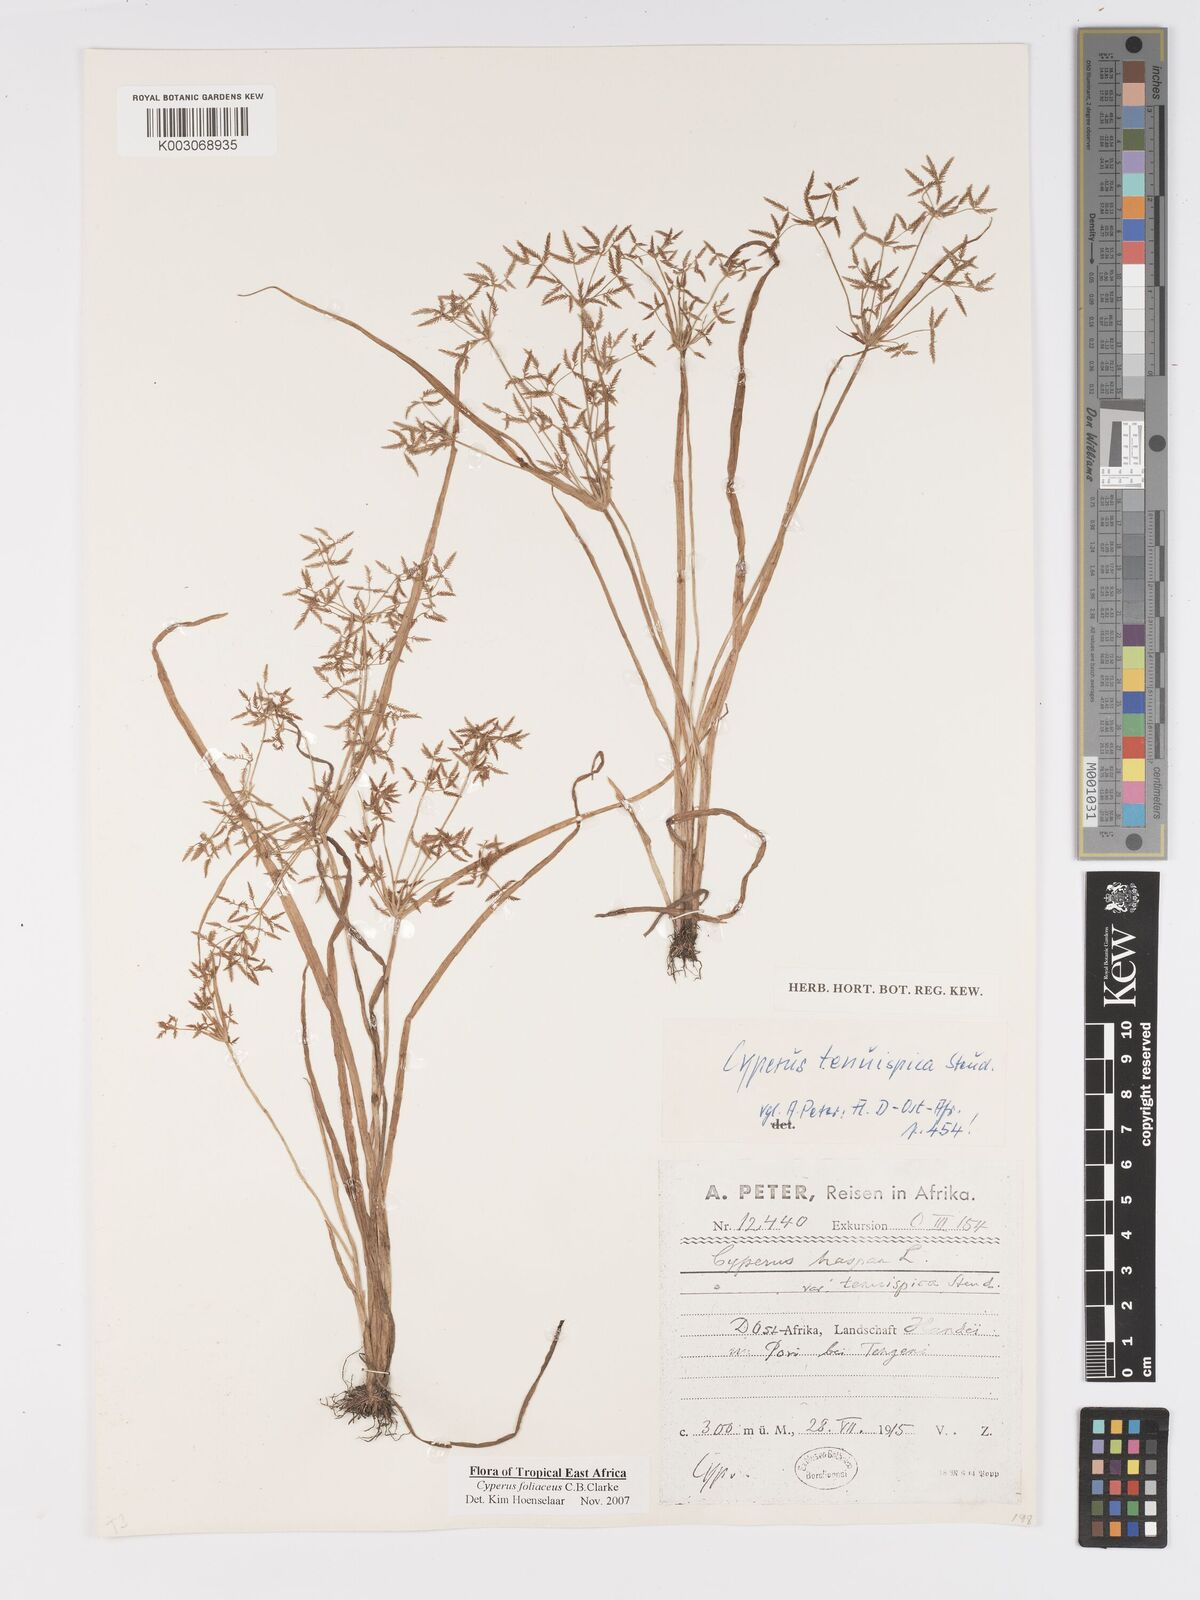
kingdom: Plantae
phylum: Tracheophyta
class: Liliopsida
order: Poales
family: Cyperaceae
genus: Cyperus
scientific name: Cyperus foliaceus
